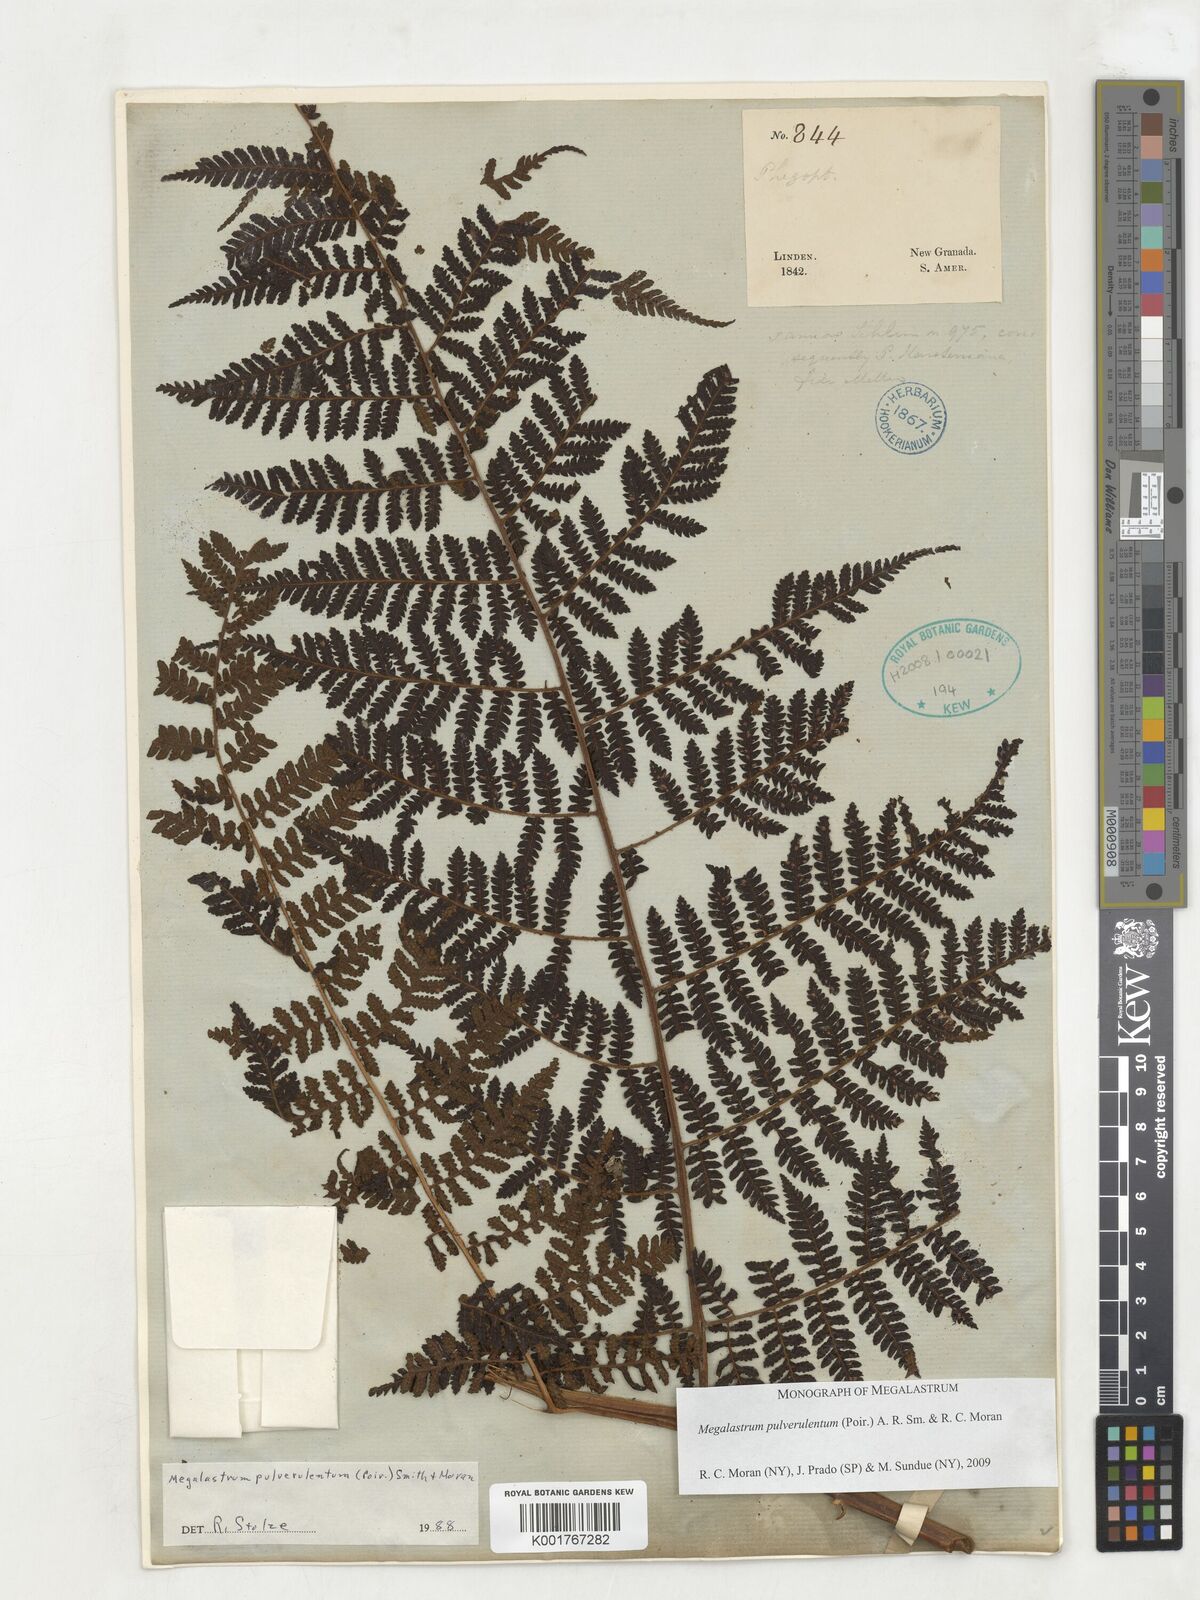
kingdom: Plantae
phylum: Tracheophyta
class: Polypodiopsida
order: Polypodiales
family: Dryopteridaceae
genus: Megalastrum
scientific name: Megalastrum pulverulentum
